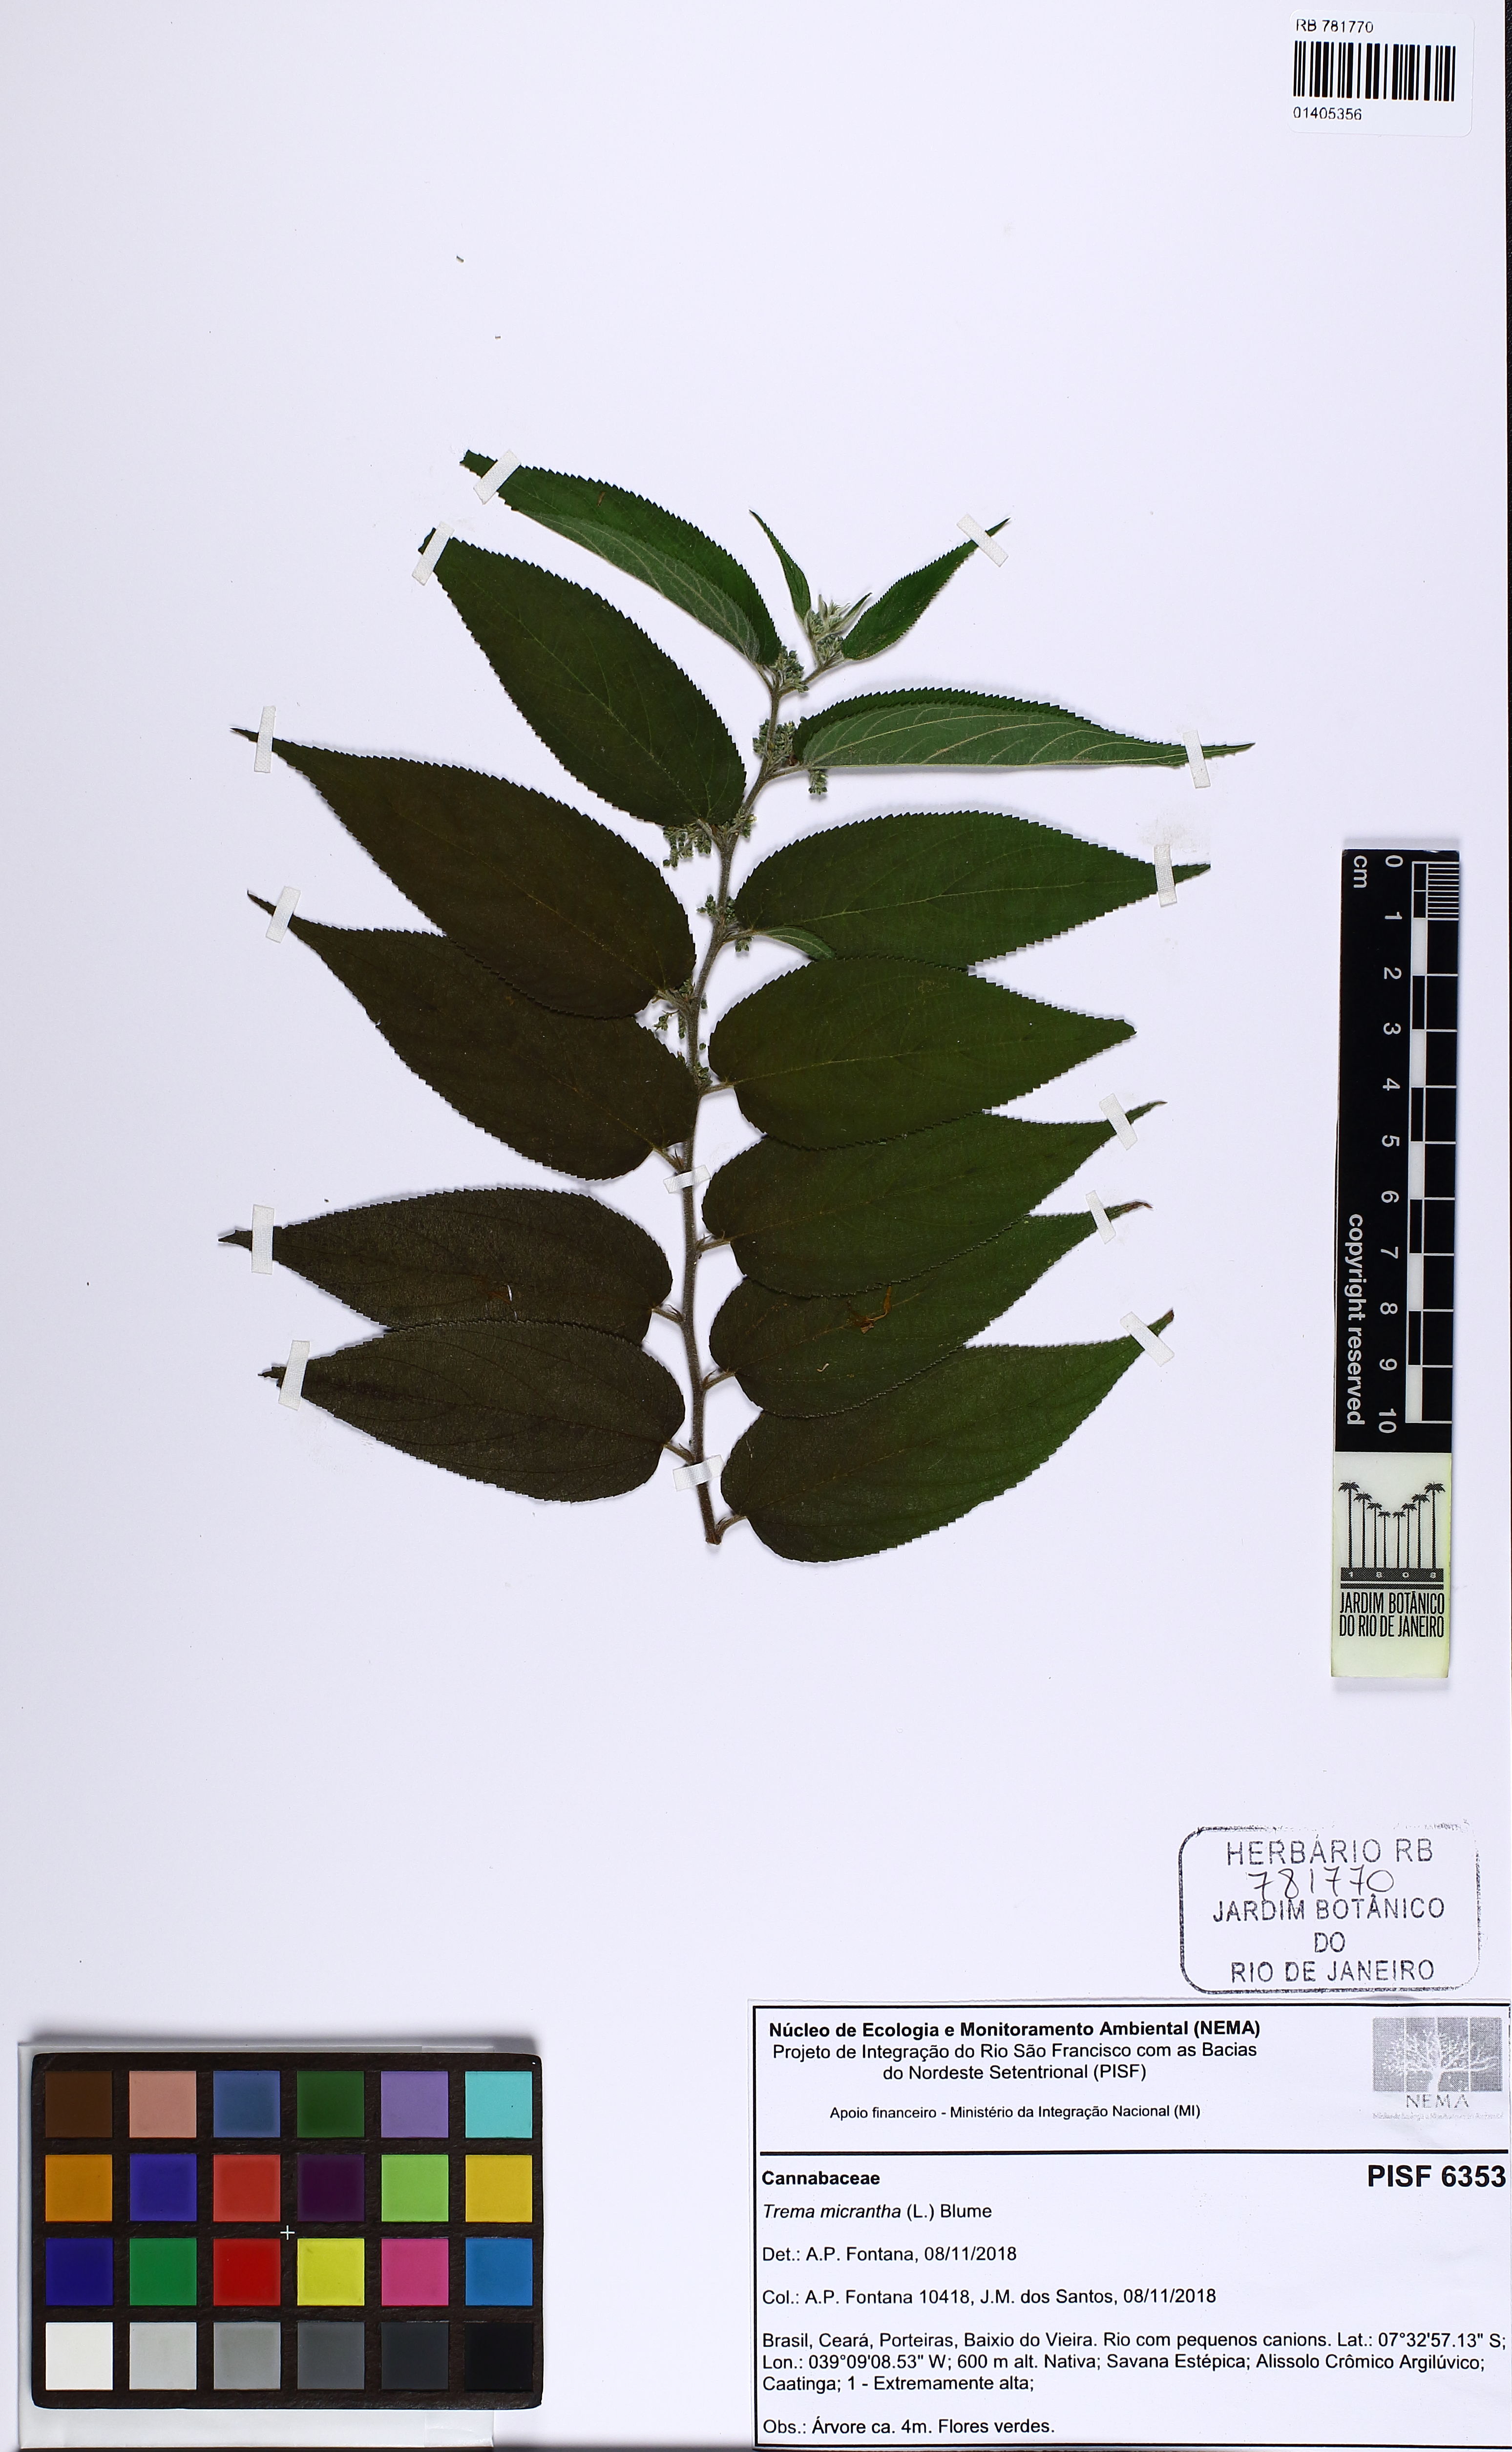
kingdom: Plantae
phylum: Tracheophyta
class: Magnoliopsida
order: Rosales
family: Cannabaceae
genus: Trema
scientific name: Trema micranthum
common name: Jamaican nettletree
